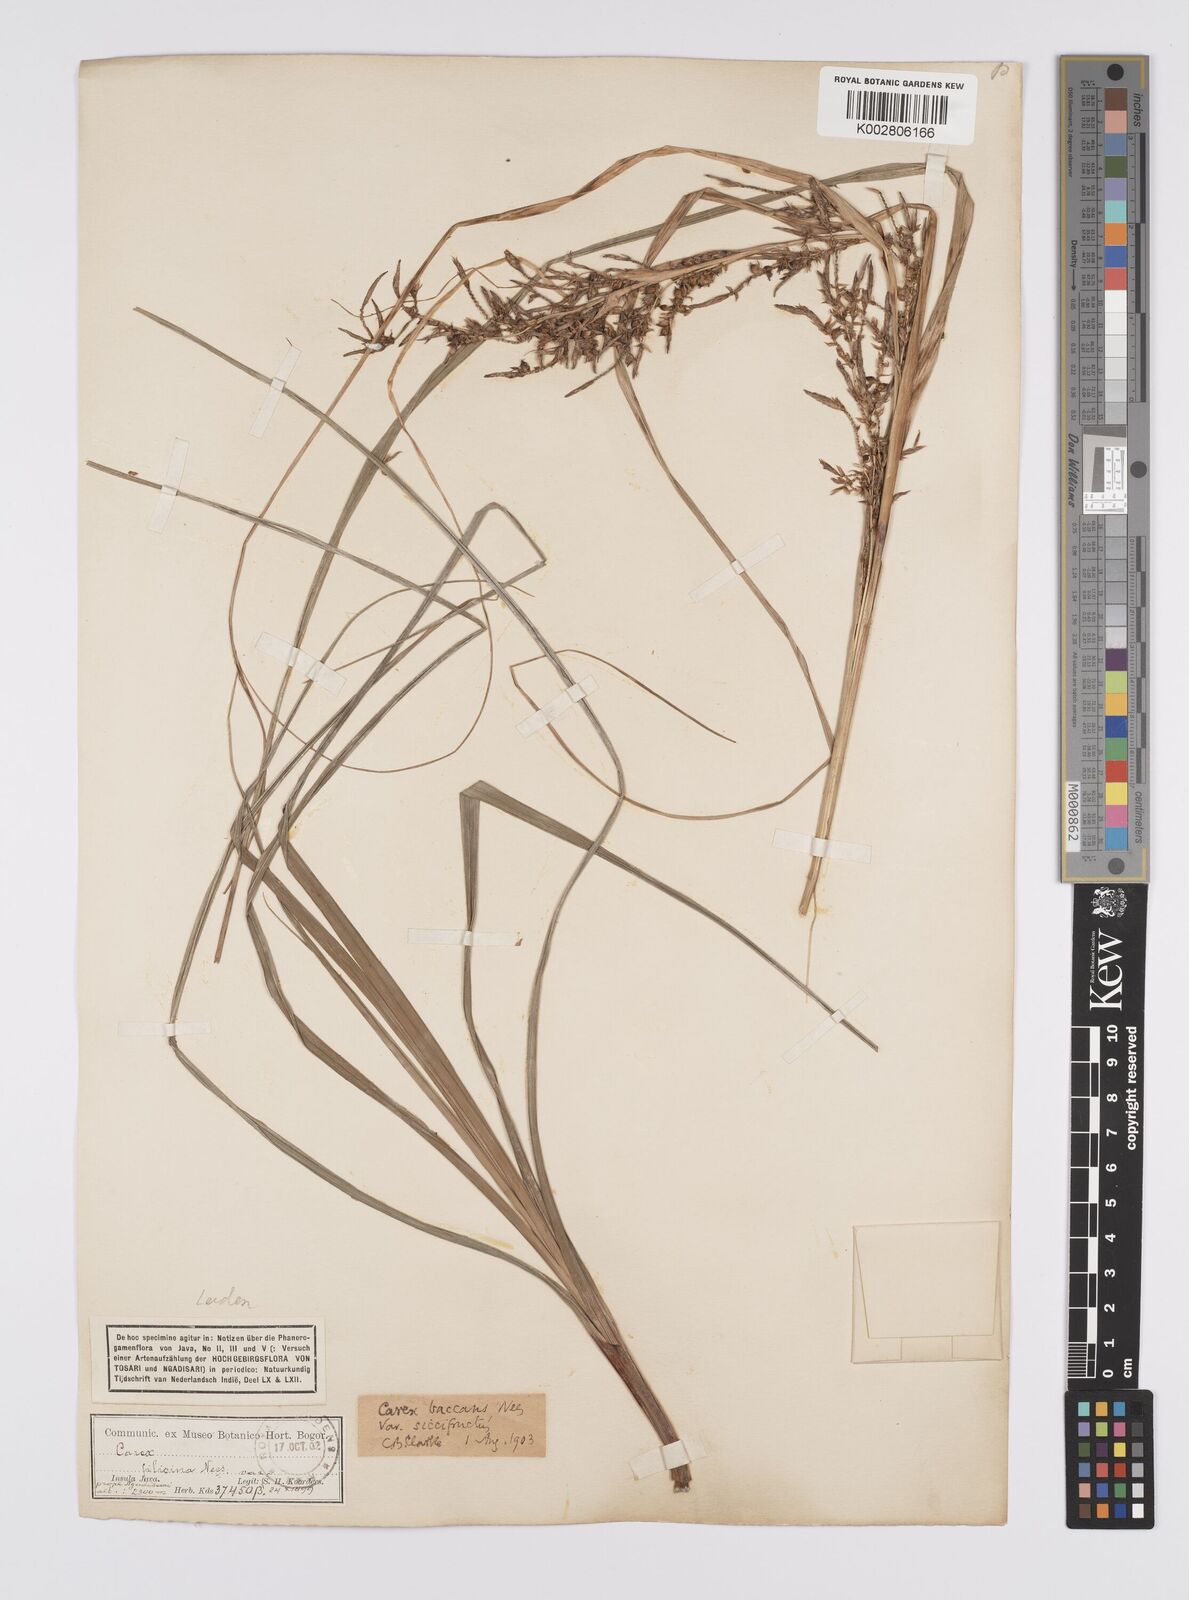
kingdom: Plantae
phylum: Tracheophyta
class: Liliopsida
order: Poales
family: Cyperaceae
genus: Carex
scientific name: Carex baccans
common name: Crimson seeded sedge
